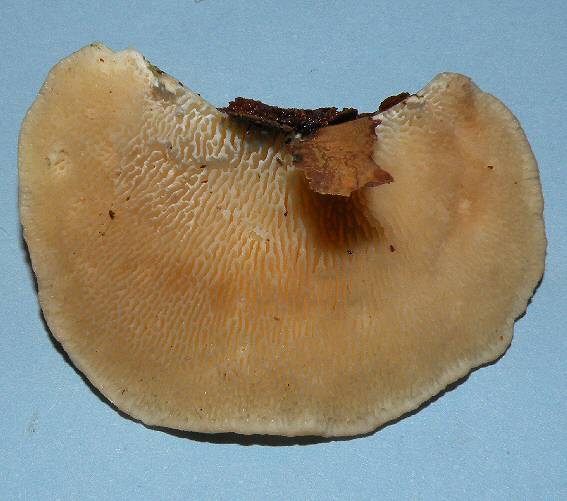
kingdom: Fungi
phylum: Basidiomycota
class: Agaricomycetes
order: Polyporales
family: Polyporaceae
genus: Trametes
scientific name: Trametes gibbosa
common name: puklet læderporesvamp
